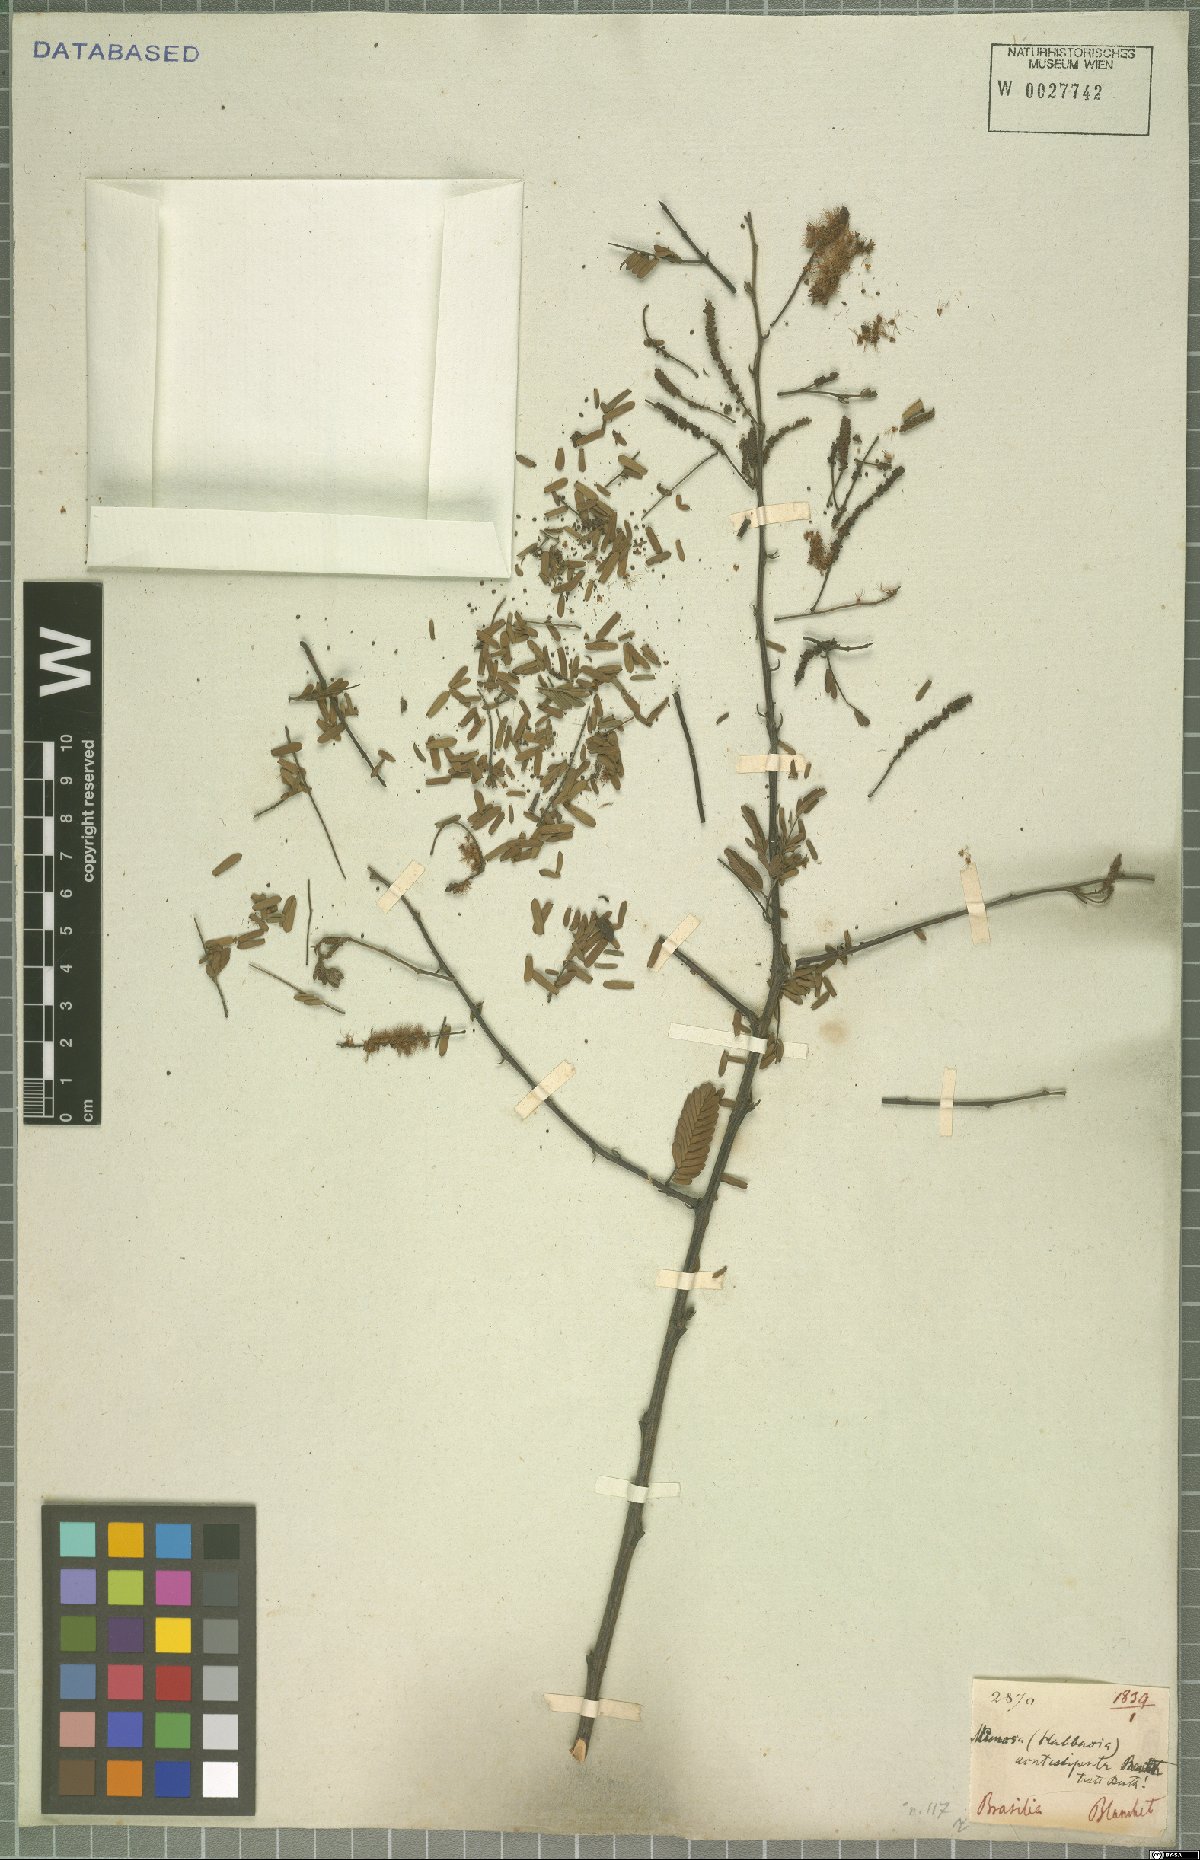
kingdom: Plantae
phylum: Tracheophyta
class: Magnoliopsida
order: Fabales
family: Fabaceae
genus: Mimosa
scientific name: Mimosa acutistipula
